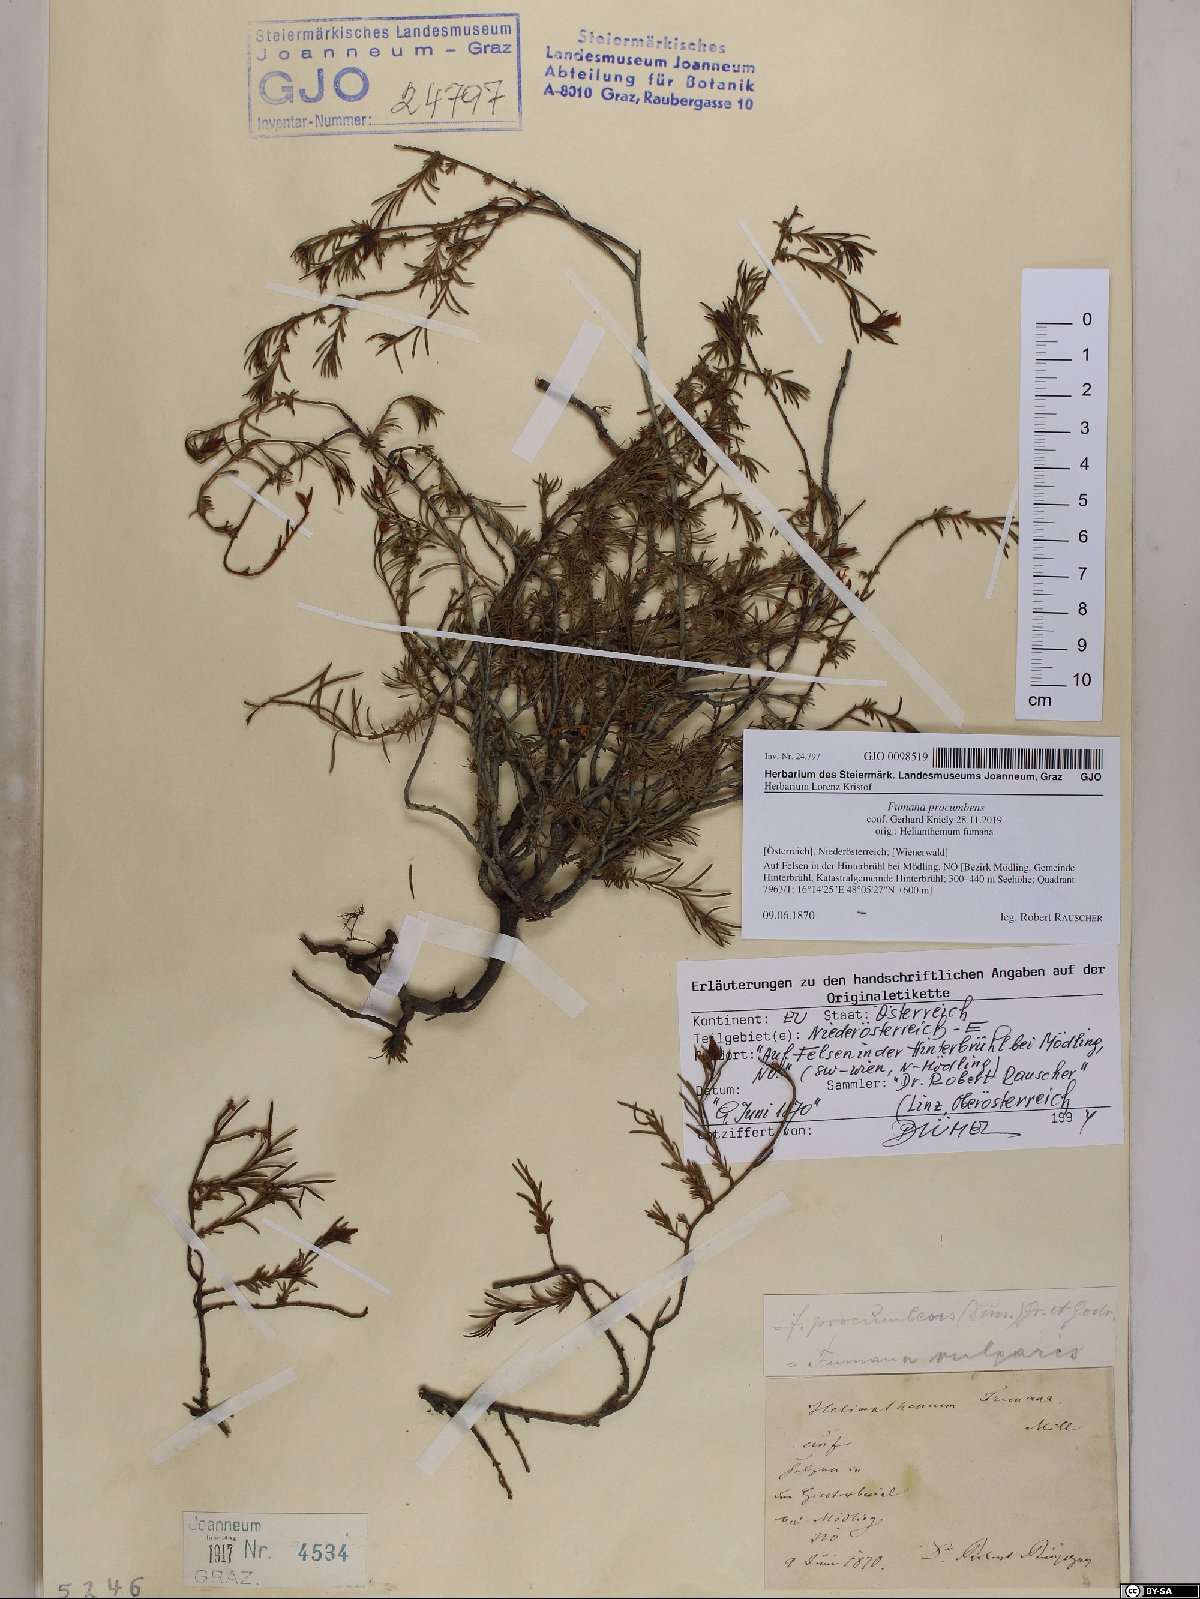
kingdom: Plantae
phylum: Tracheophyta
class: Magnoliopsida
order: Malvales
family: Cistaceae
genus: Fumana
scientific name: Fumana procumbens
